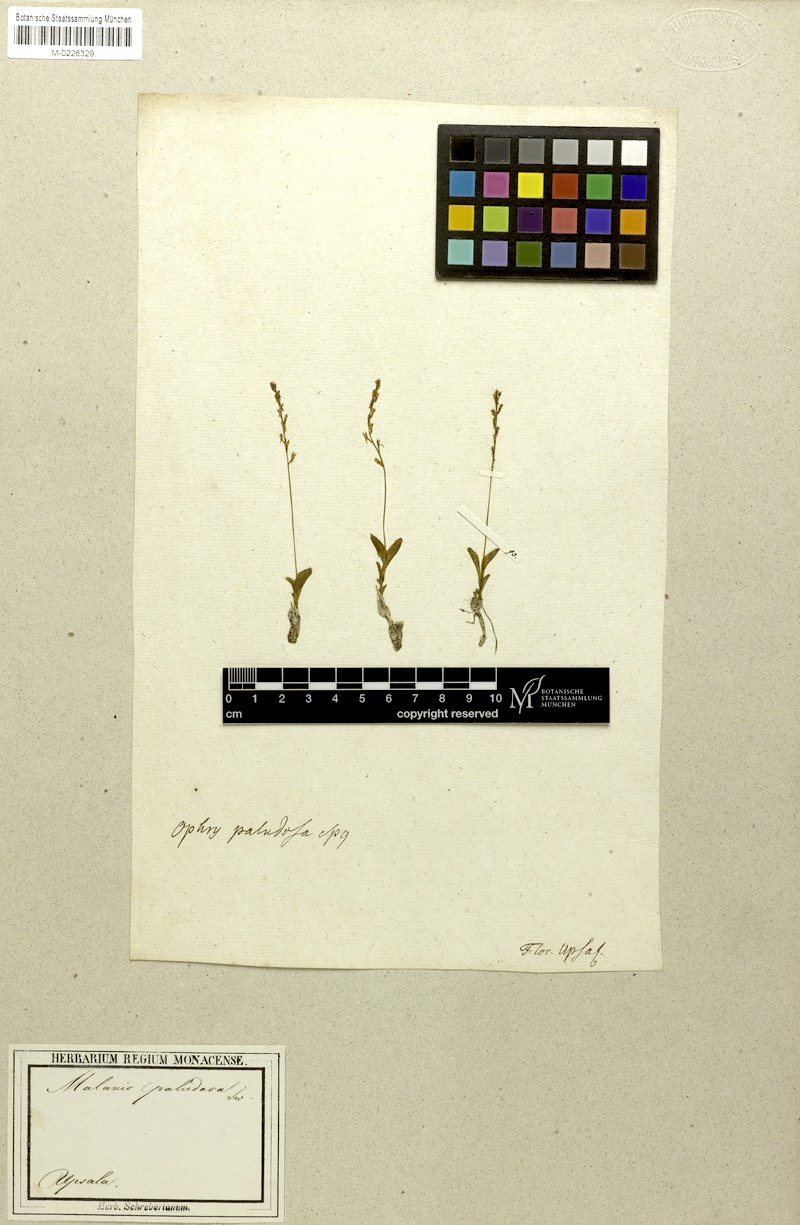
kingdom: Plantae
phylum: Tracheophyta
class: Liliopsida
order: Asparagales
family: Orchidaceae
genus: Hammarbya
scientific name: Hammarbya paludosa
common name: Bog orchid
